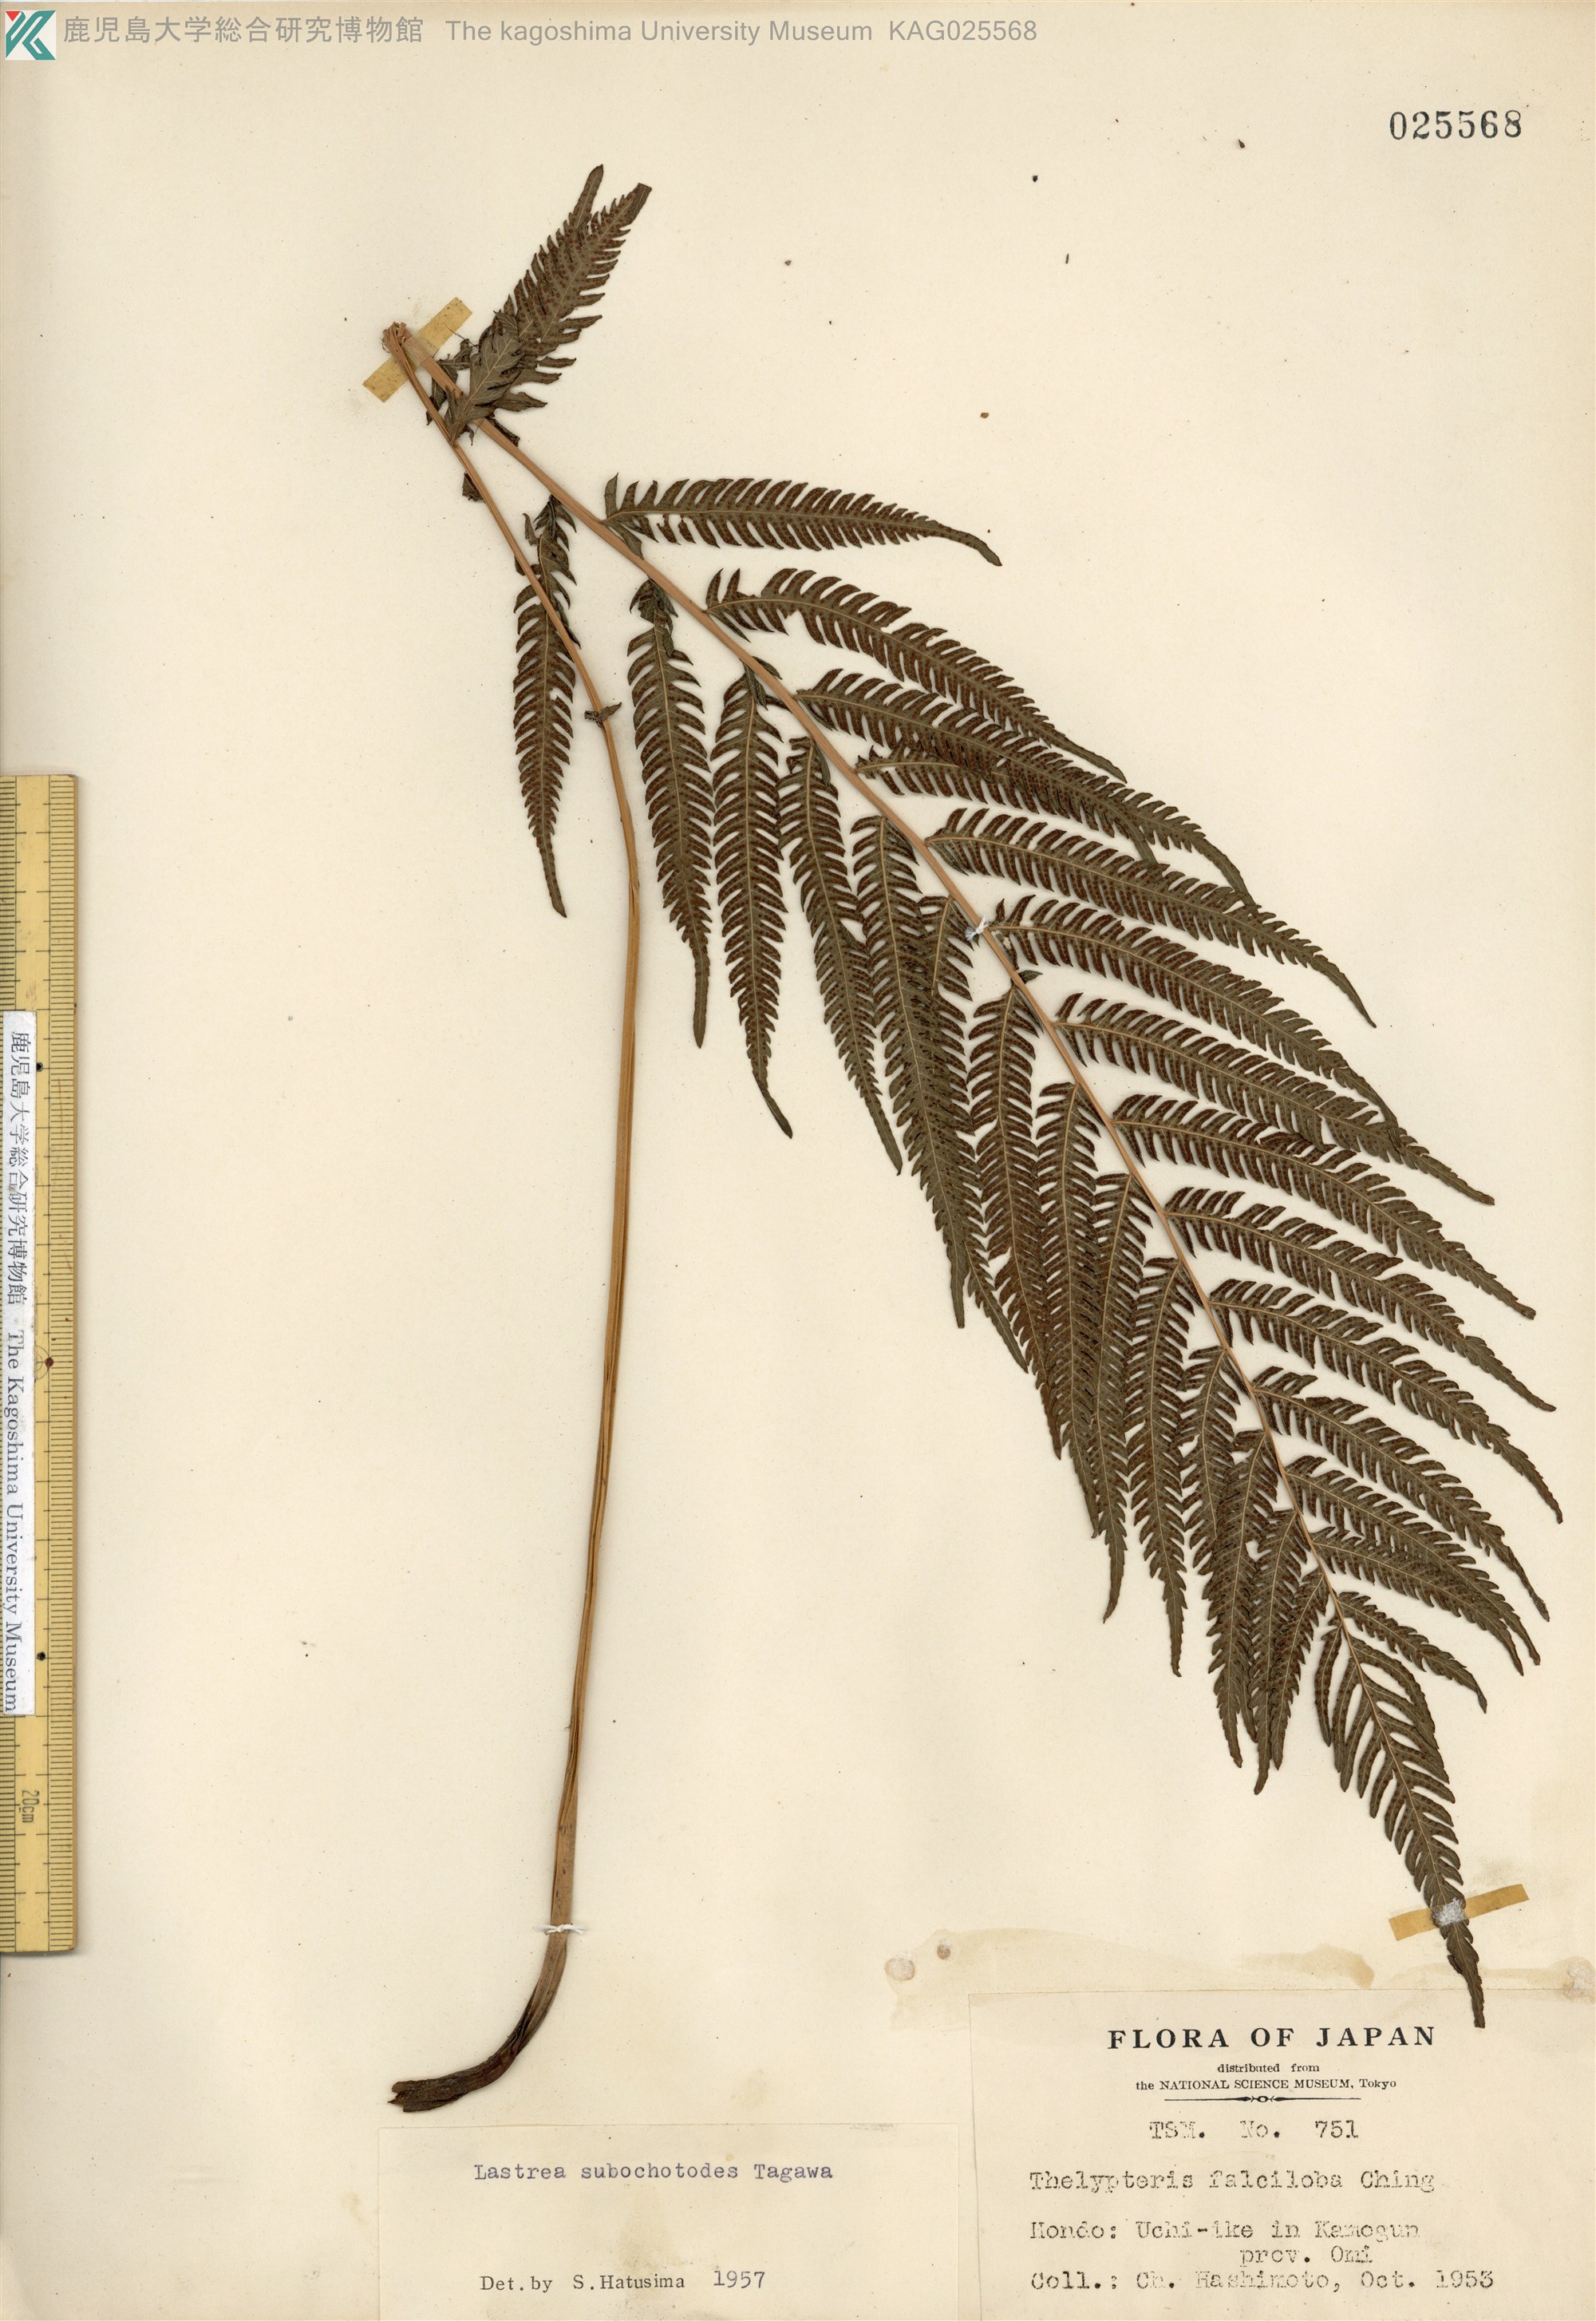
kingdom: Plantae
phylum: Tracheophyta
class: Polypodiopsida
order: Polypodiales
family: Thelypteridaceae
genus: Pseudocyclosorus
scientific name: Pseudocyclosorus esquirolii
